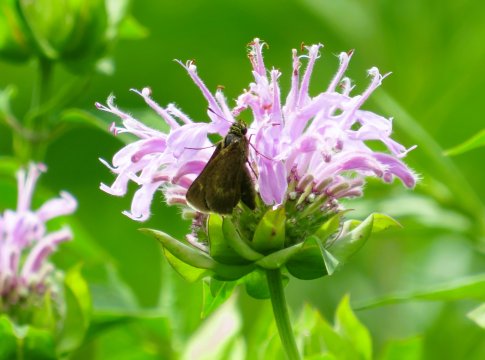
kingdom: Animalia
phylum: Arthropoda
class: Insecta
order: Lepidoptera
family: Hesperiidae
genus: Polites
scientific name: Polites egeremet
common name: Northern Broken-Dash
